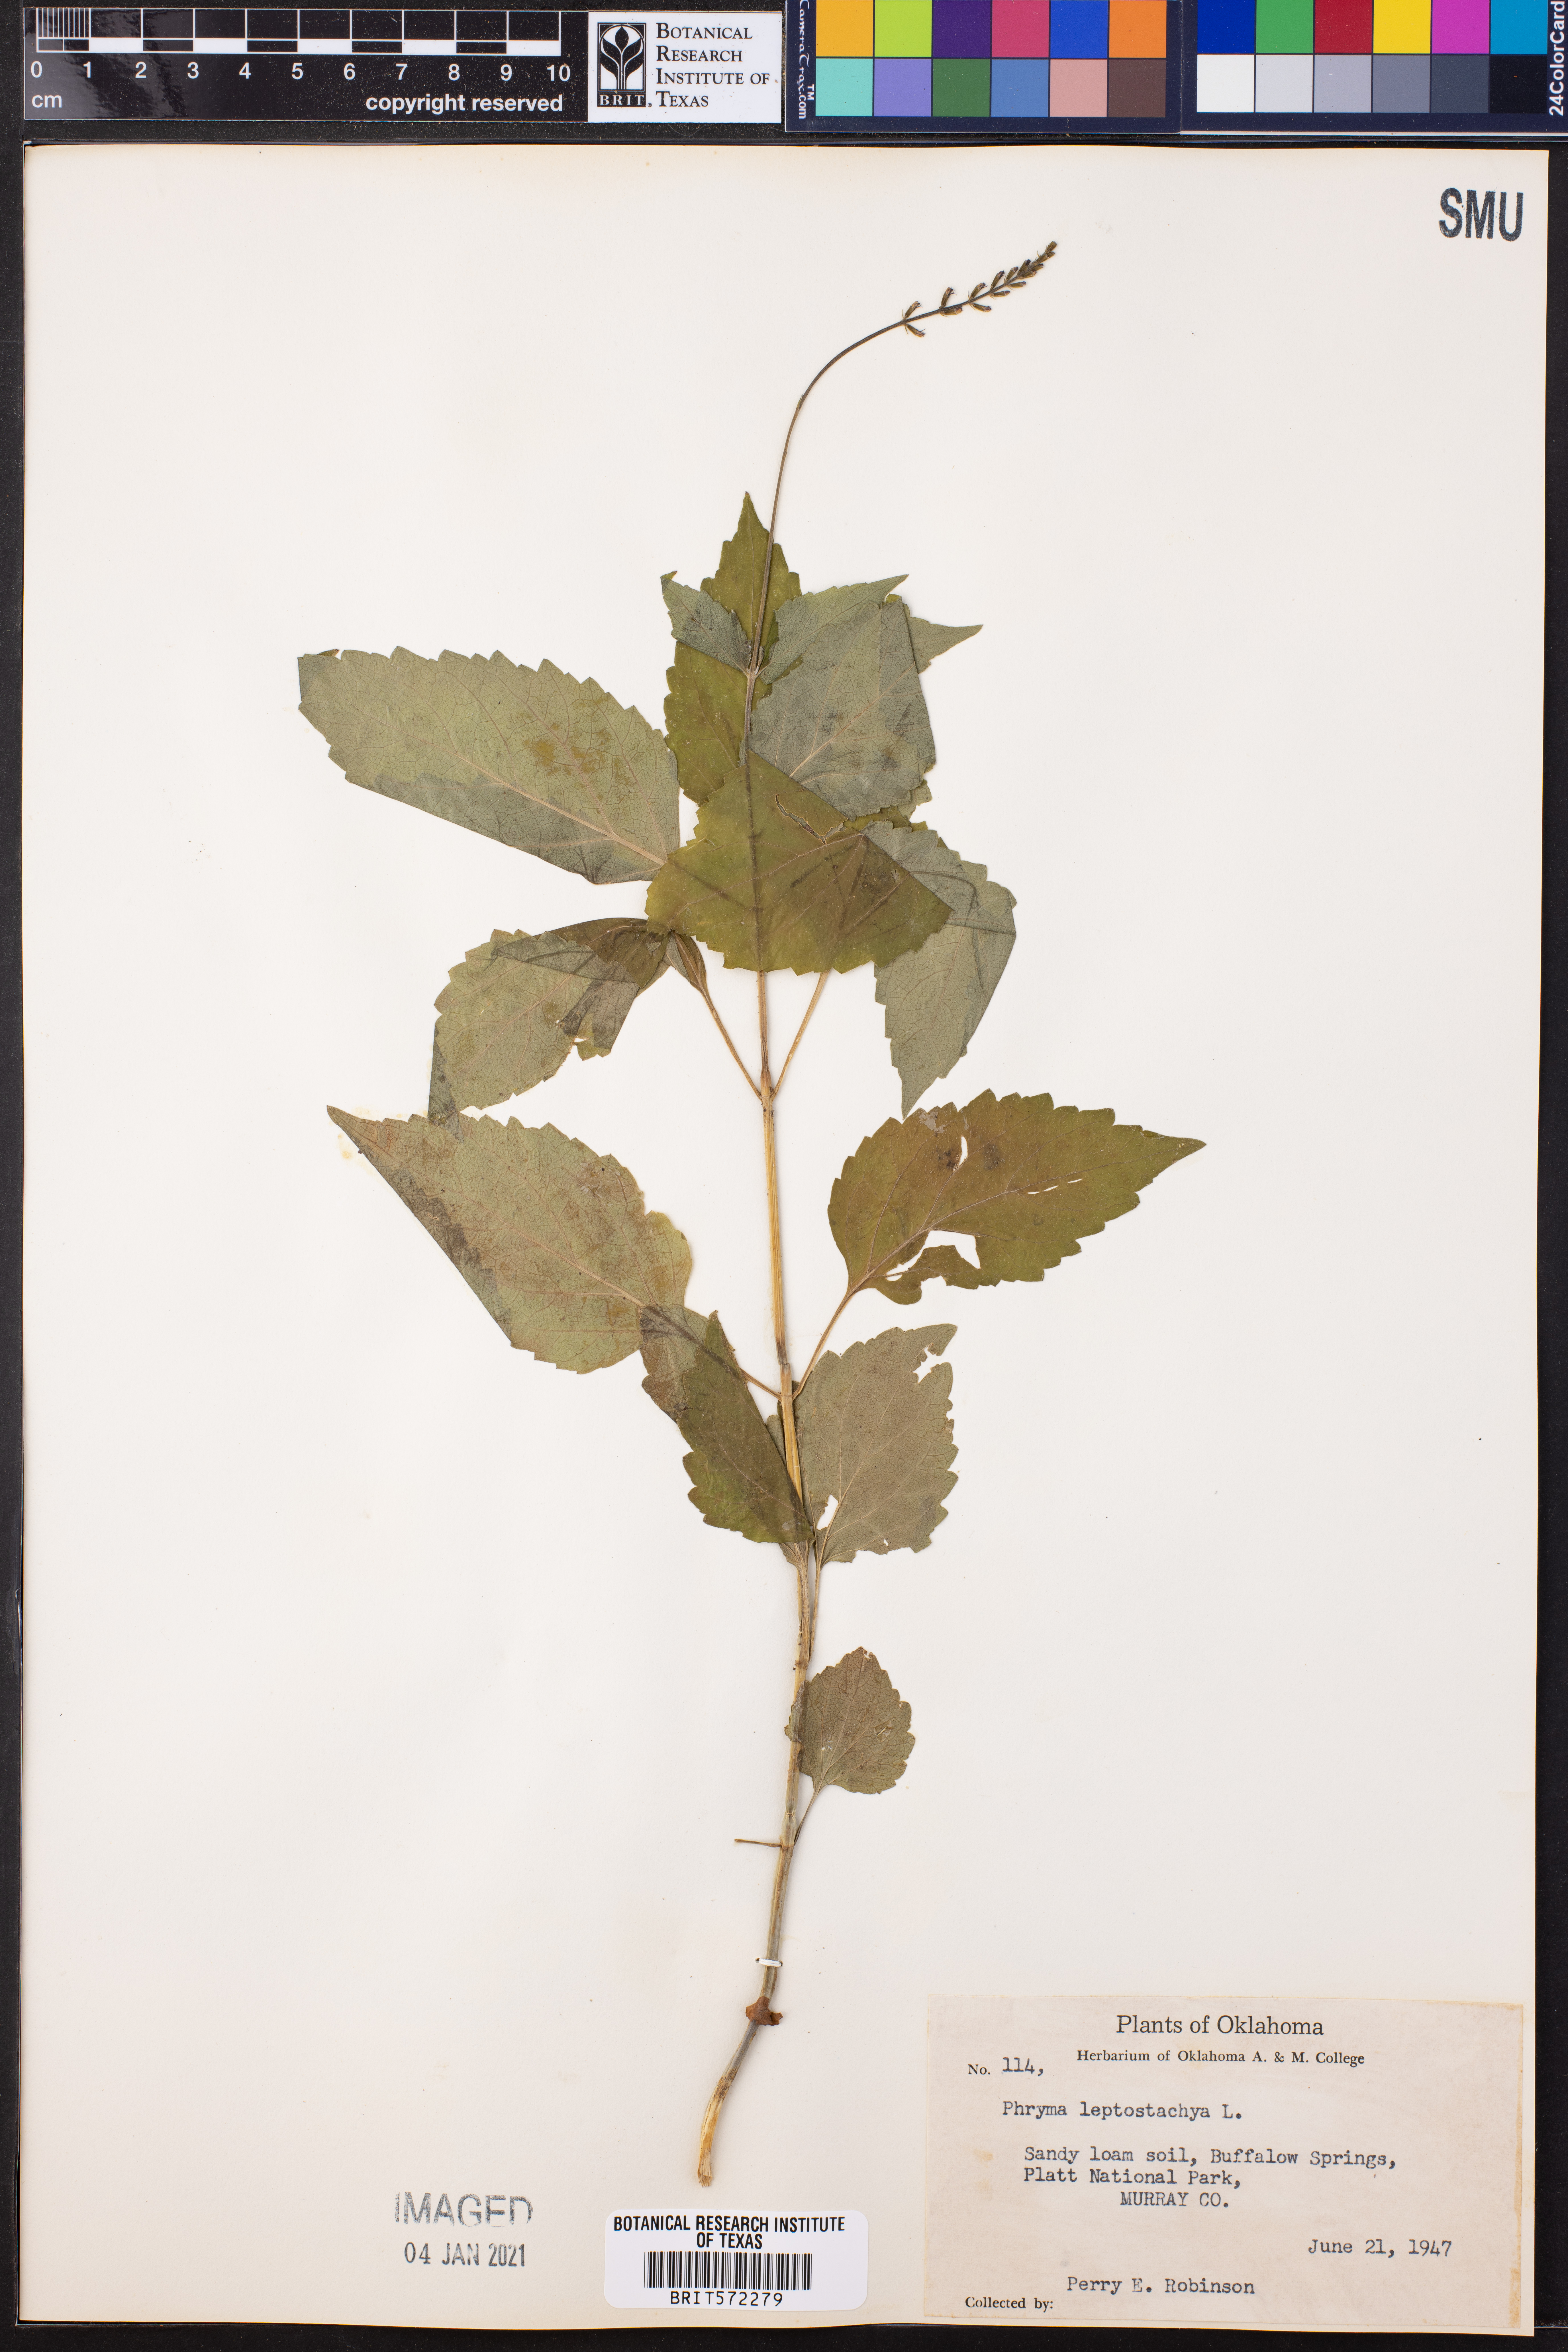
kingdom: Plantae
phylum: Tracheophyta
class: Magnoliopsida
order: Lamiales
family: Phrymaceae
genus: Phryma
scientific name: Phryma leptostachya
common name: American lopseed
